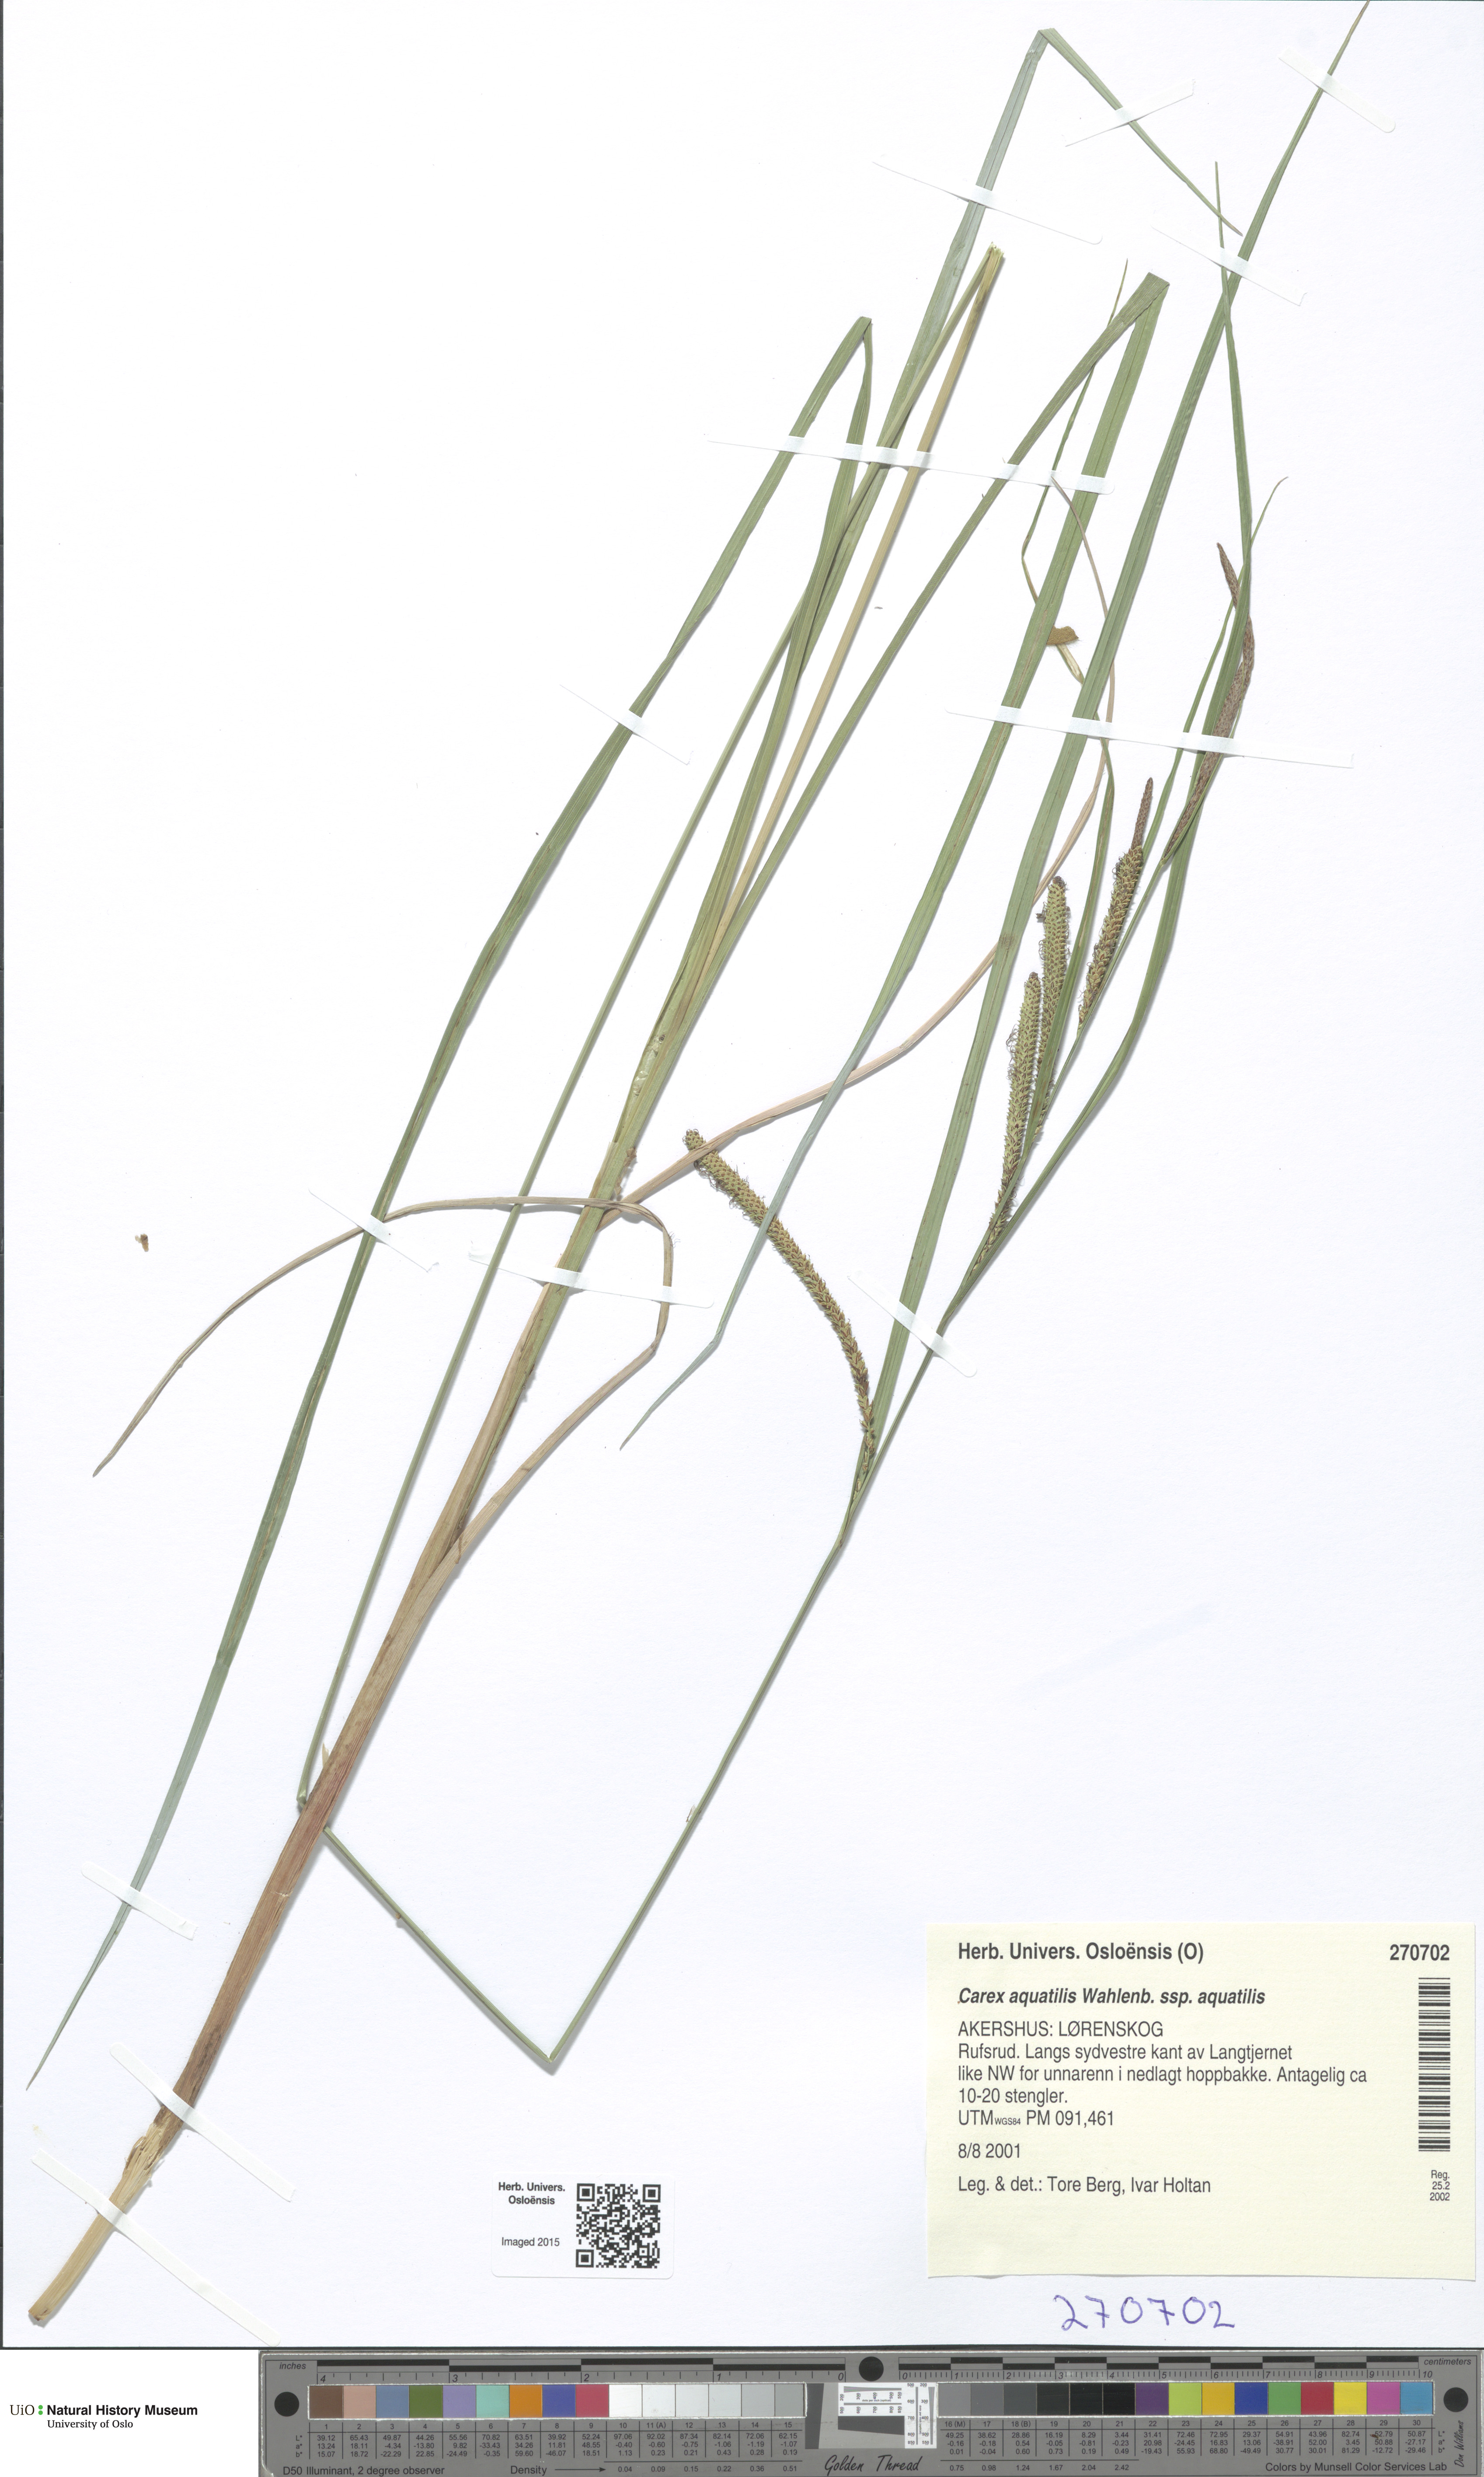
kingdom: Plantae
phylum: Tracheophyta
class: Liliopsida
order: Poales
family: Cyperaceae
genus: Carex
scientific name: Carex aquatilis
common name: Water sedge
